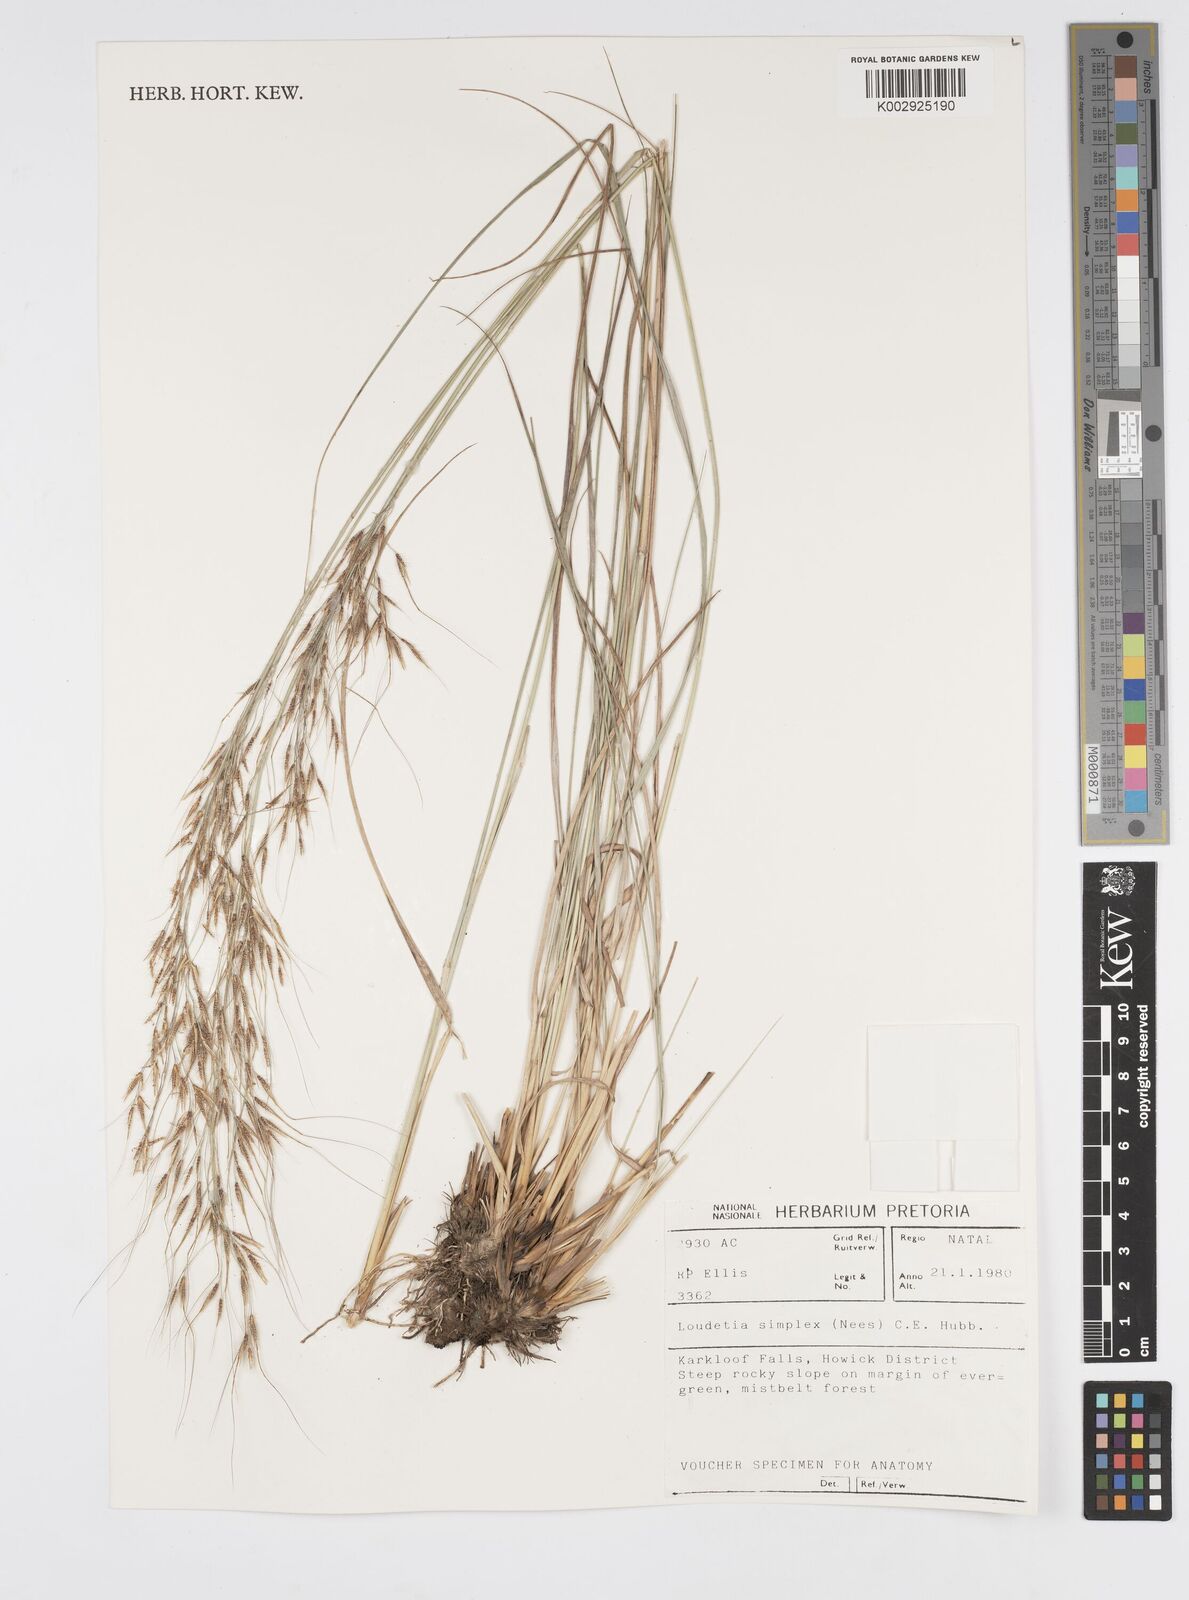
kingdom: Plantae
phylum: Tracheophyta
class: Liliopsida
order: Poales
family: Poaceae
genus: Loudetia
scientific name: Loudetia simplex
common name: Common russet grass
